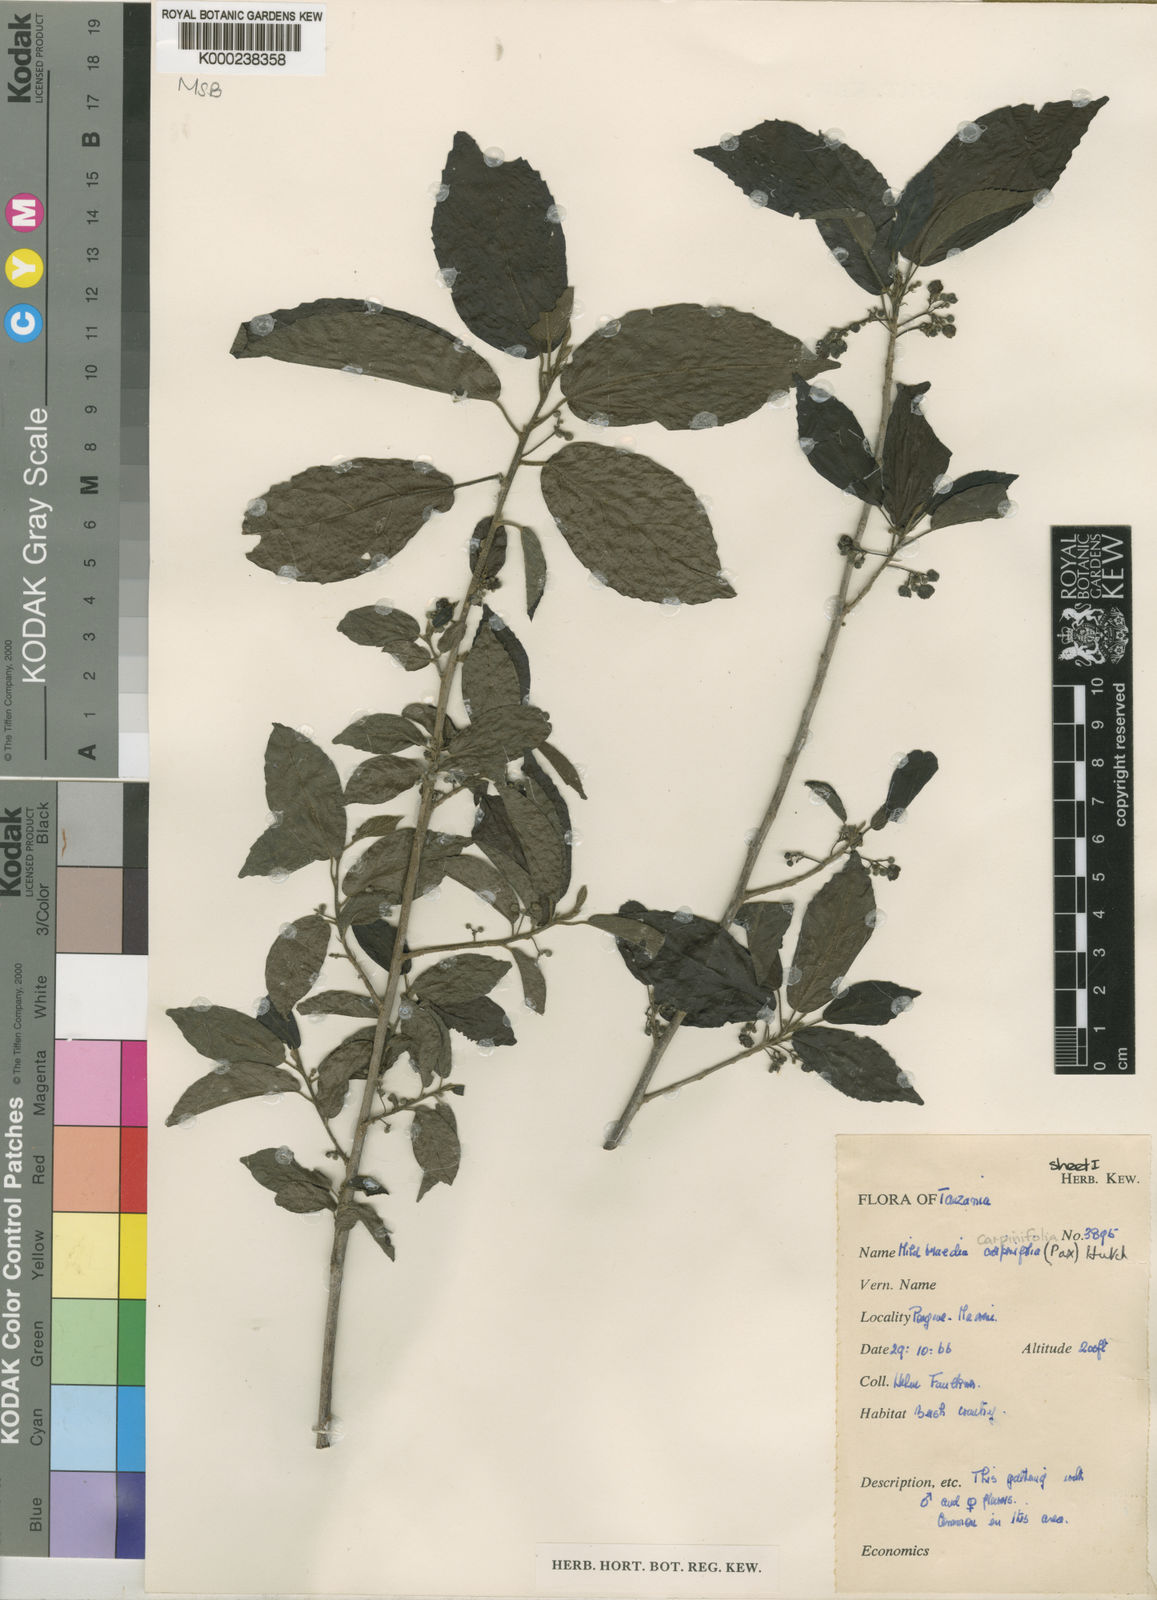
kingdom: Plantae
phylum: Tracheophyta
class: Magnoliopsida
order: Malpighiales
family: Euphorbiaceae
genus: Mildbraedia
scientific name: Mildbraedia carpinifolia
